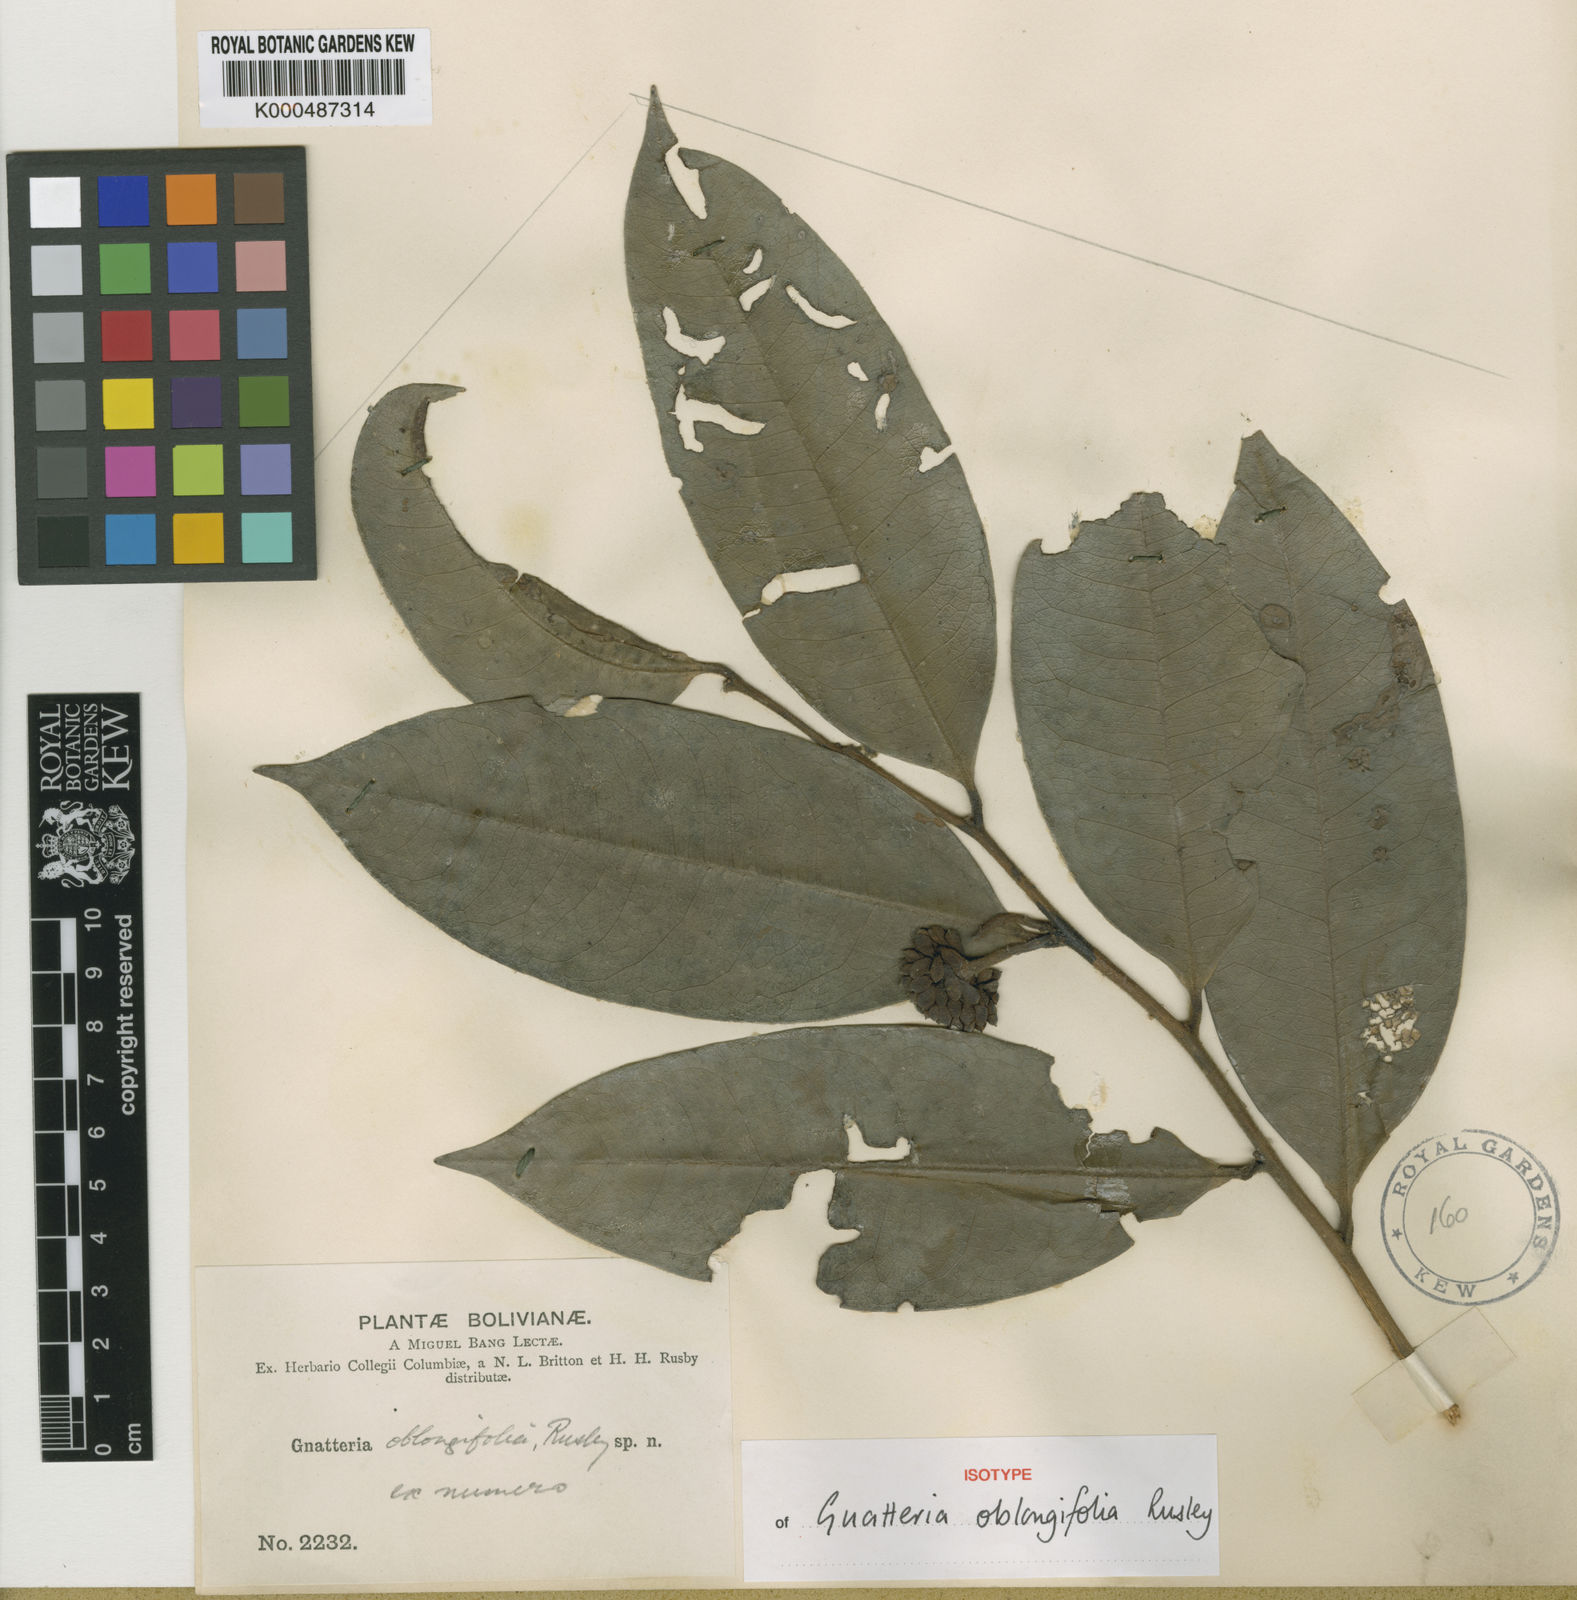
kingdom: Plantae
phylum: Tracheophyta
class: Magnoliopsida
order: Magnoliales
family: Annonaceae
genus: Guatteria
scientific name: Guatteria oblongifolia
